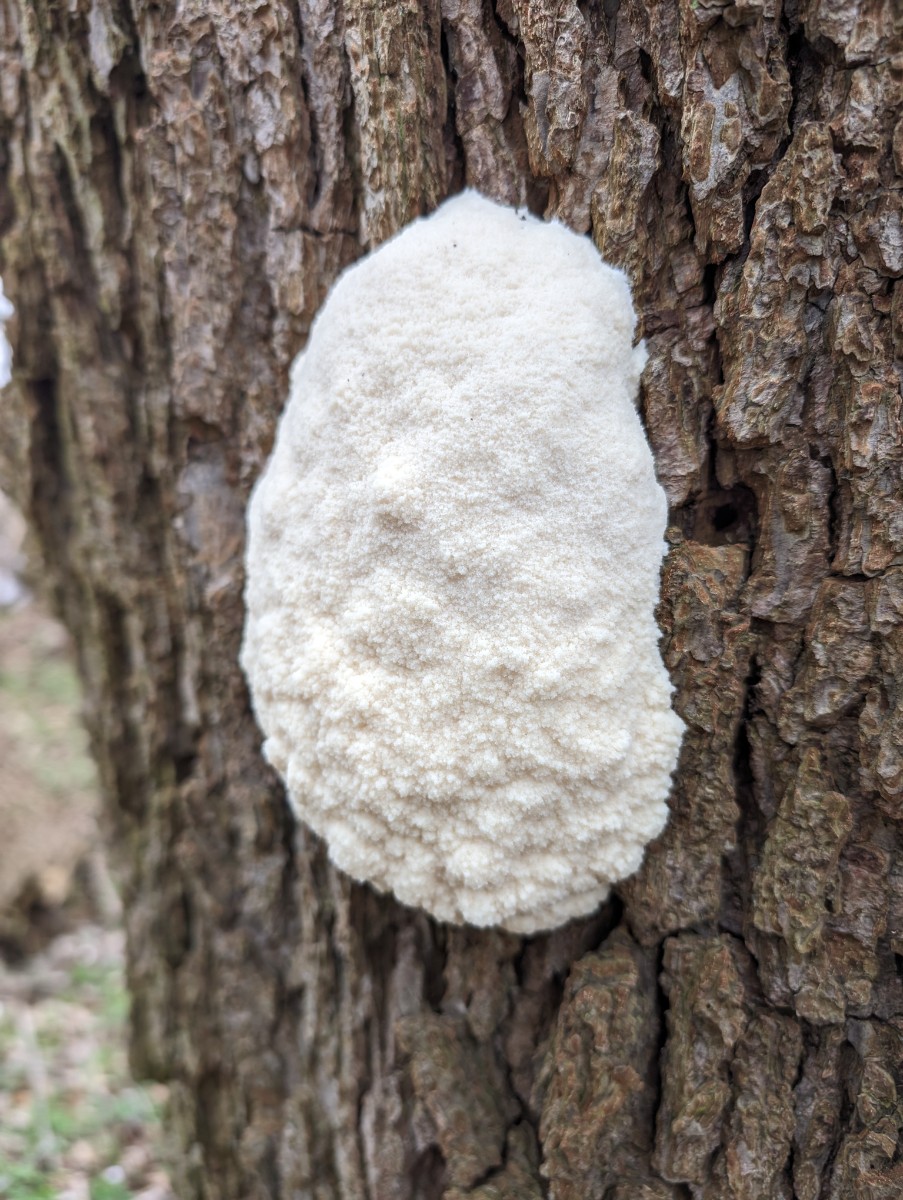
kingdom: Protozoa
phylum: Mycetozoa
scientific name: Mycetozoa
